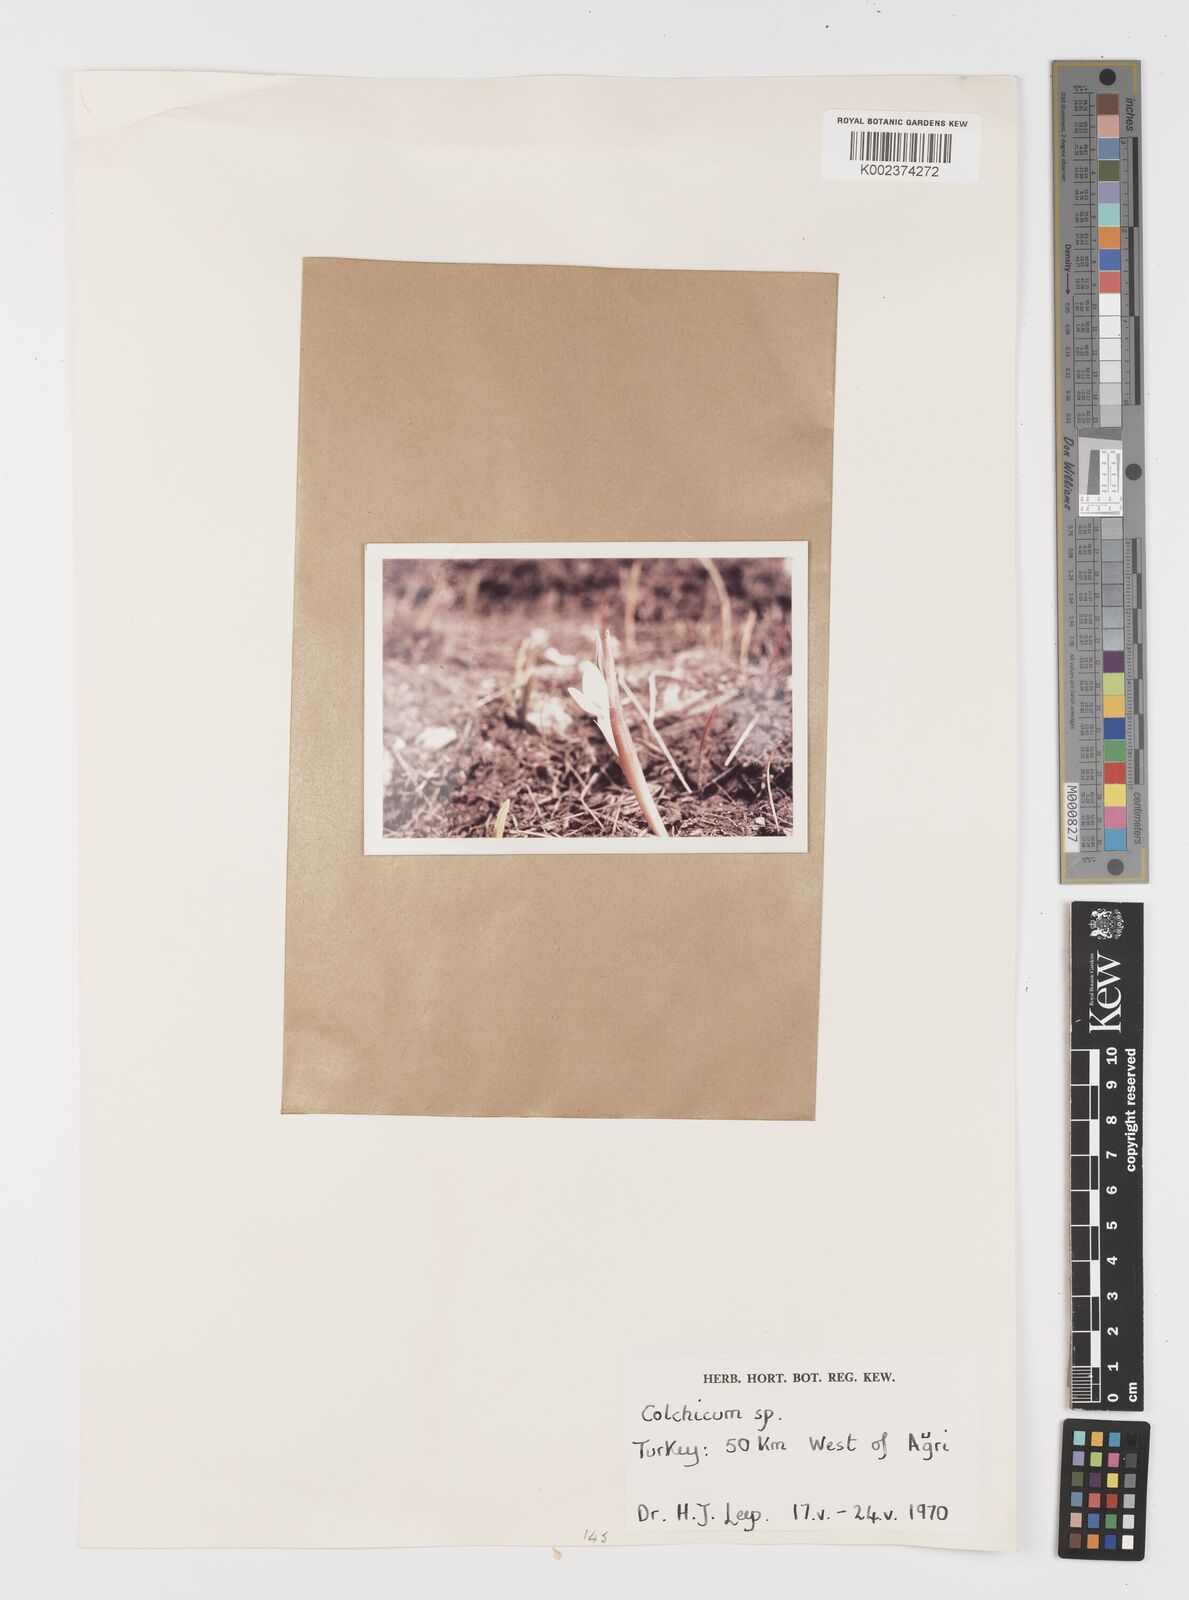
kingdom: Plantae
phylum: Tracheophyta
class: Liliopsida
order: Liliales
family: Colchicaceae
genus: Colchicum
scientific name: Colchicum
